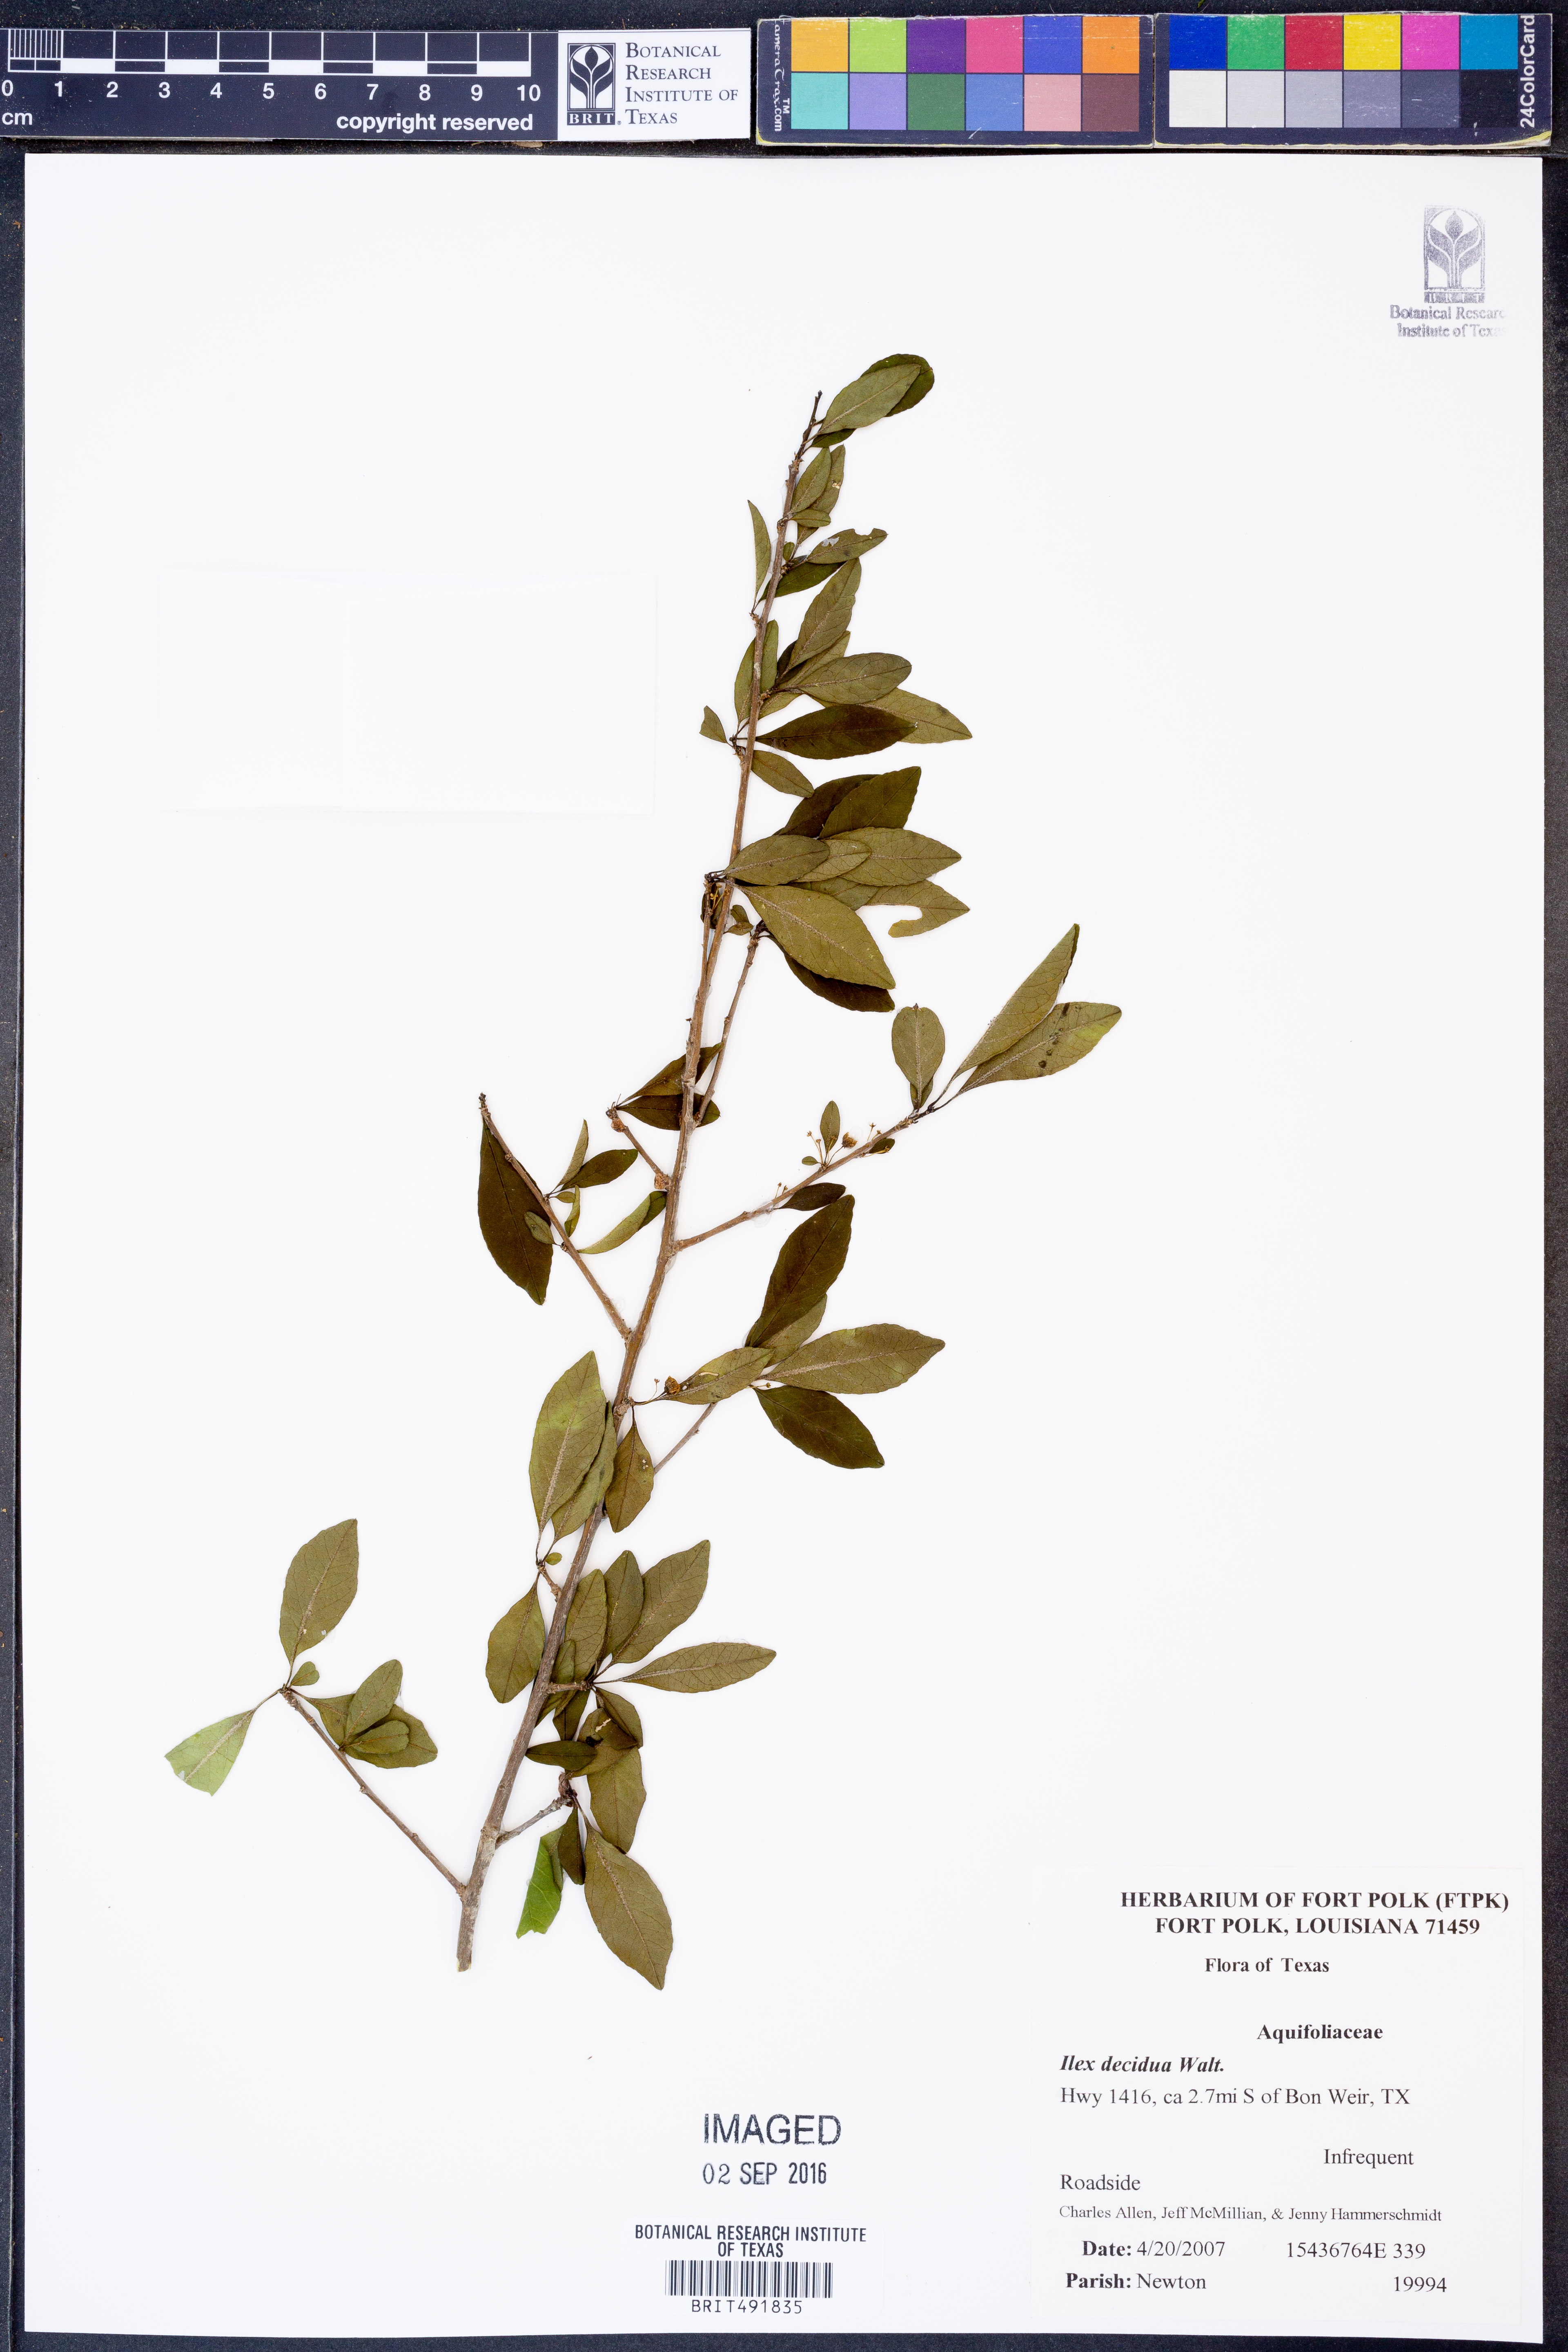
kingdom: Plantae
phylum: Tracheophyta
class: Magnoliopsida
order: Aquifoliales
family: Aquifoliaceae
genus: Ilex
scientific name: Ilex decidua
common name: Possum-haw
